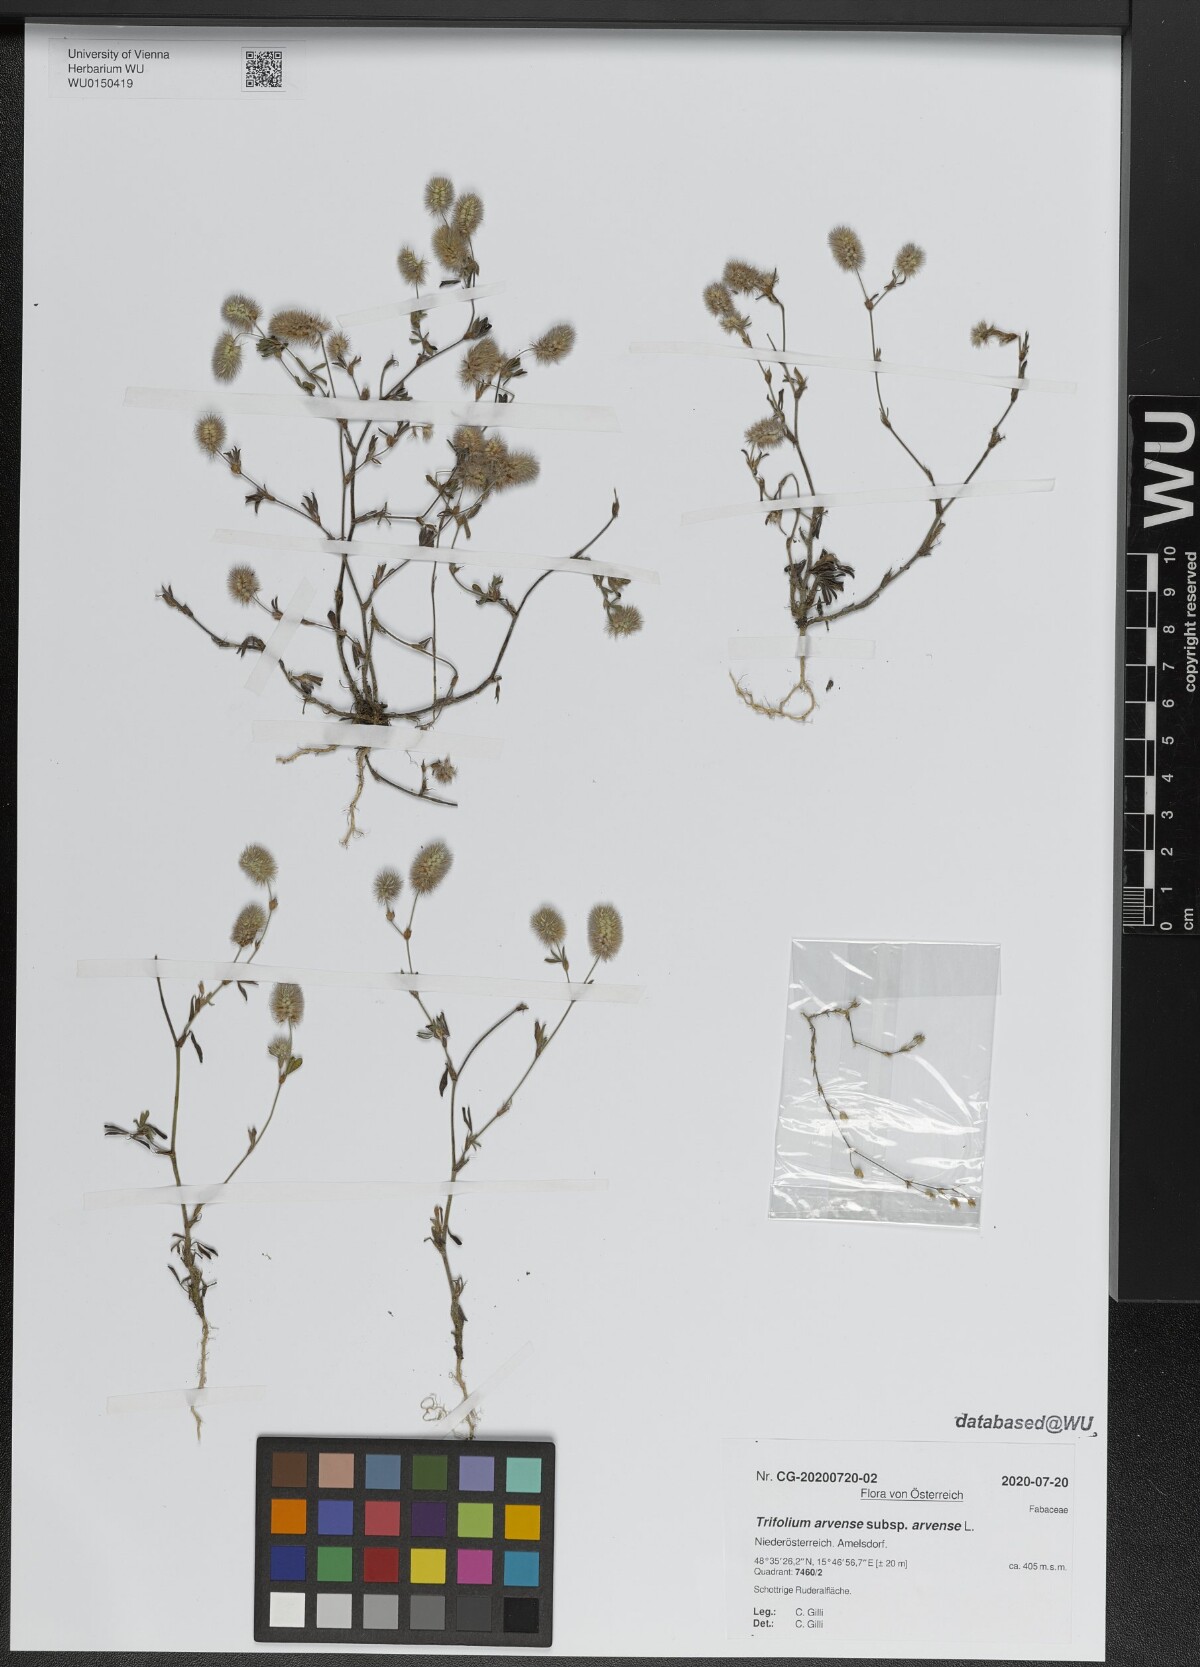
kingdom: Plantae
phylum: Tracheophyta
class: Magnoliopsida
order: Fabales
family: Fabaceae
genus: Trifolium
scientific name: Trifolium arvense
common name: Hare's-foot clover
